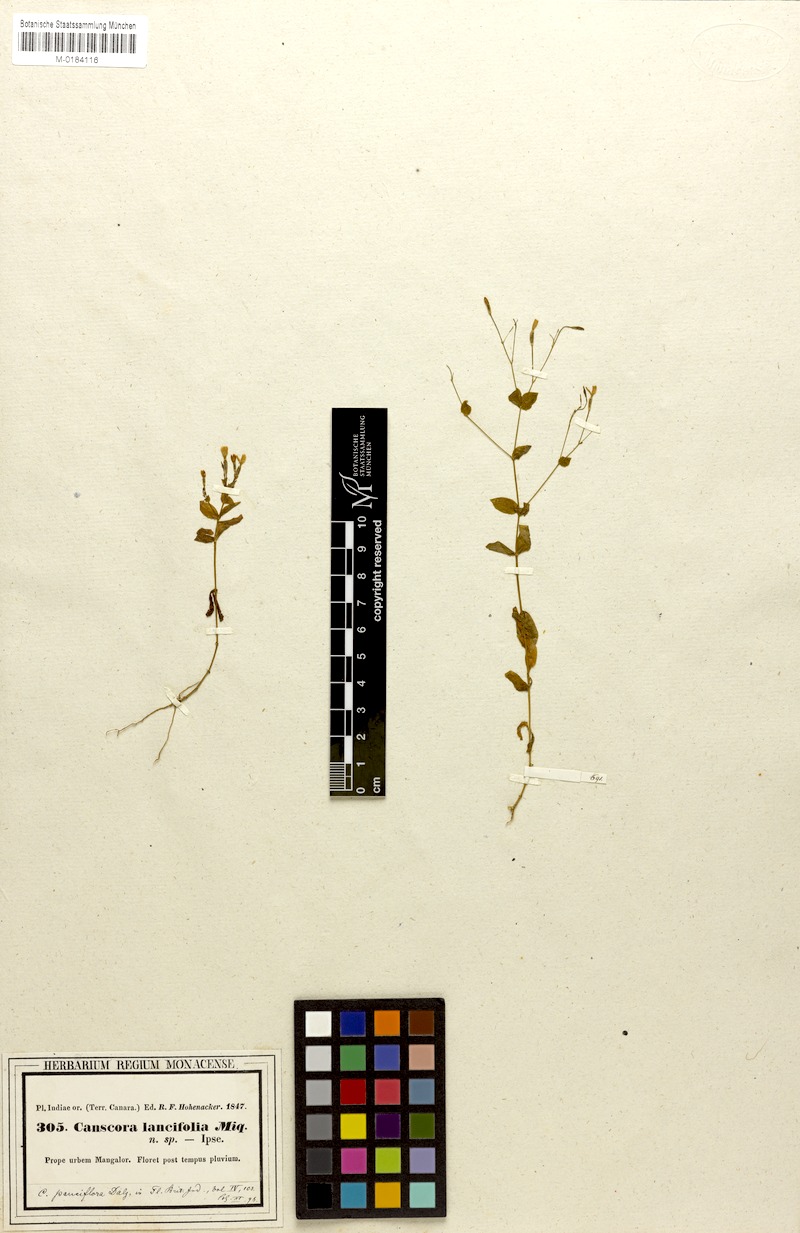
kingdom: Plantae
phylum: Tracheophyta
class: Magnoliopsida
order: Gentianales
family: Gentianaceae
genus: Canscora
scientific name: Canscora diffusa
